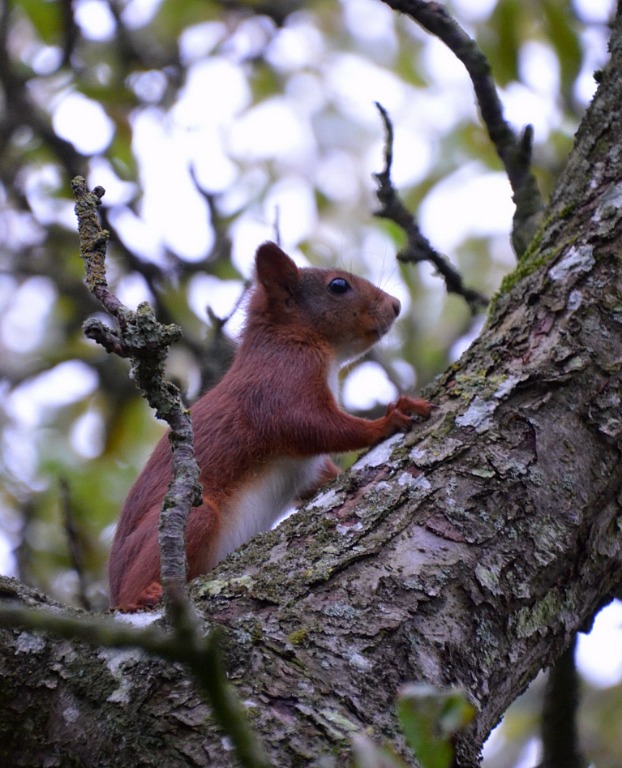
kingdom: Animalia
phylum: Chordata
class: Mammalia
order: Rodentia
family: Sciuridae
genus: Sciurus
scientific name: Sciurus vulgaris
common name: Egern
